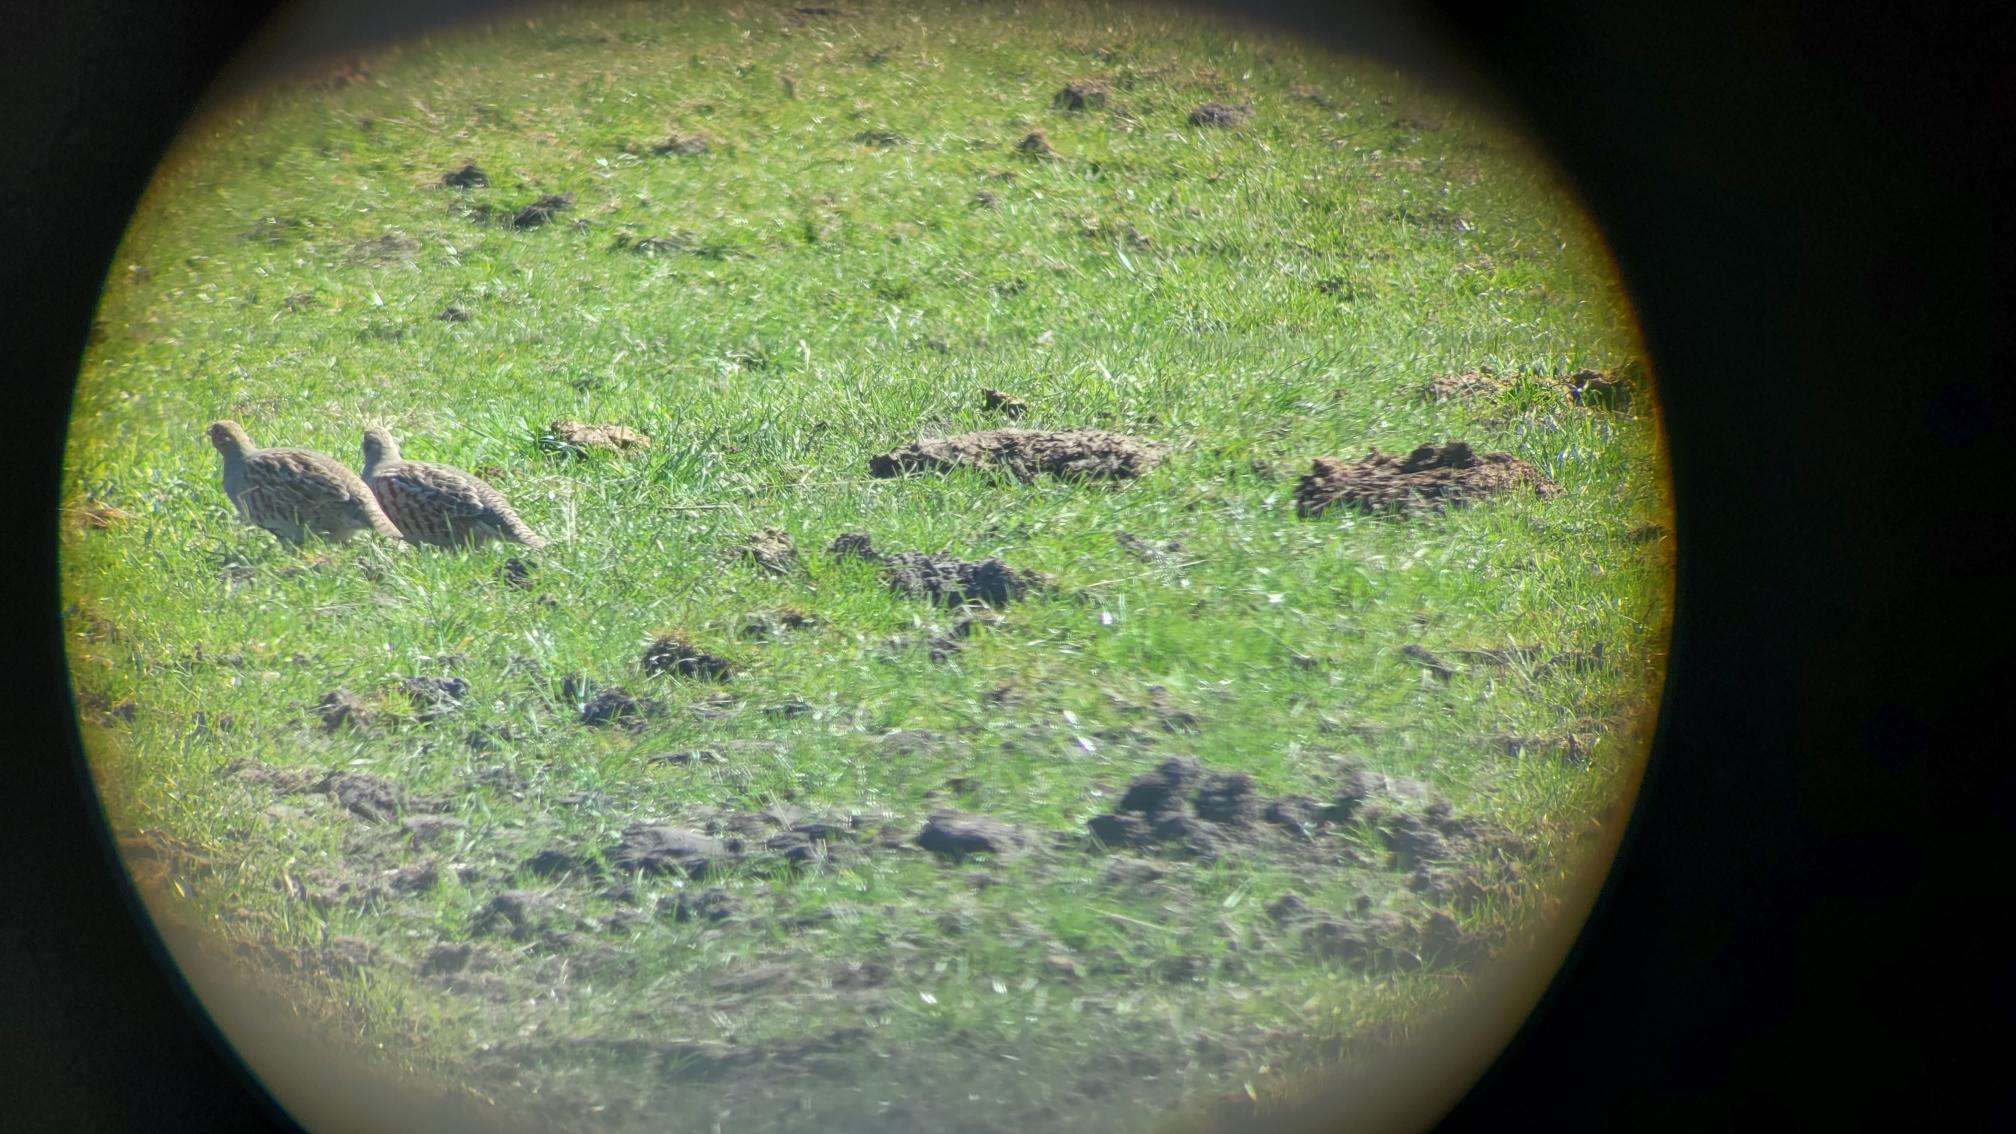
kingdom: Animalia
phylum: Chordata
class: Aves
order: Galliformes
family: Phasianidae
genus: Perdix
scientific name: Perdix perdix
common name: Agerhøne
